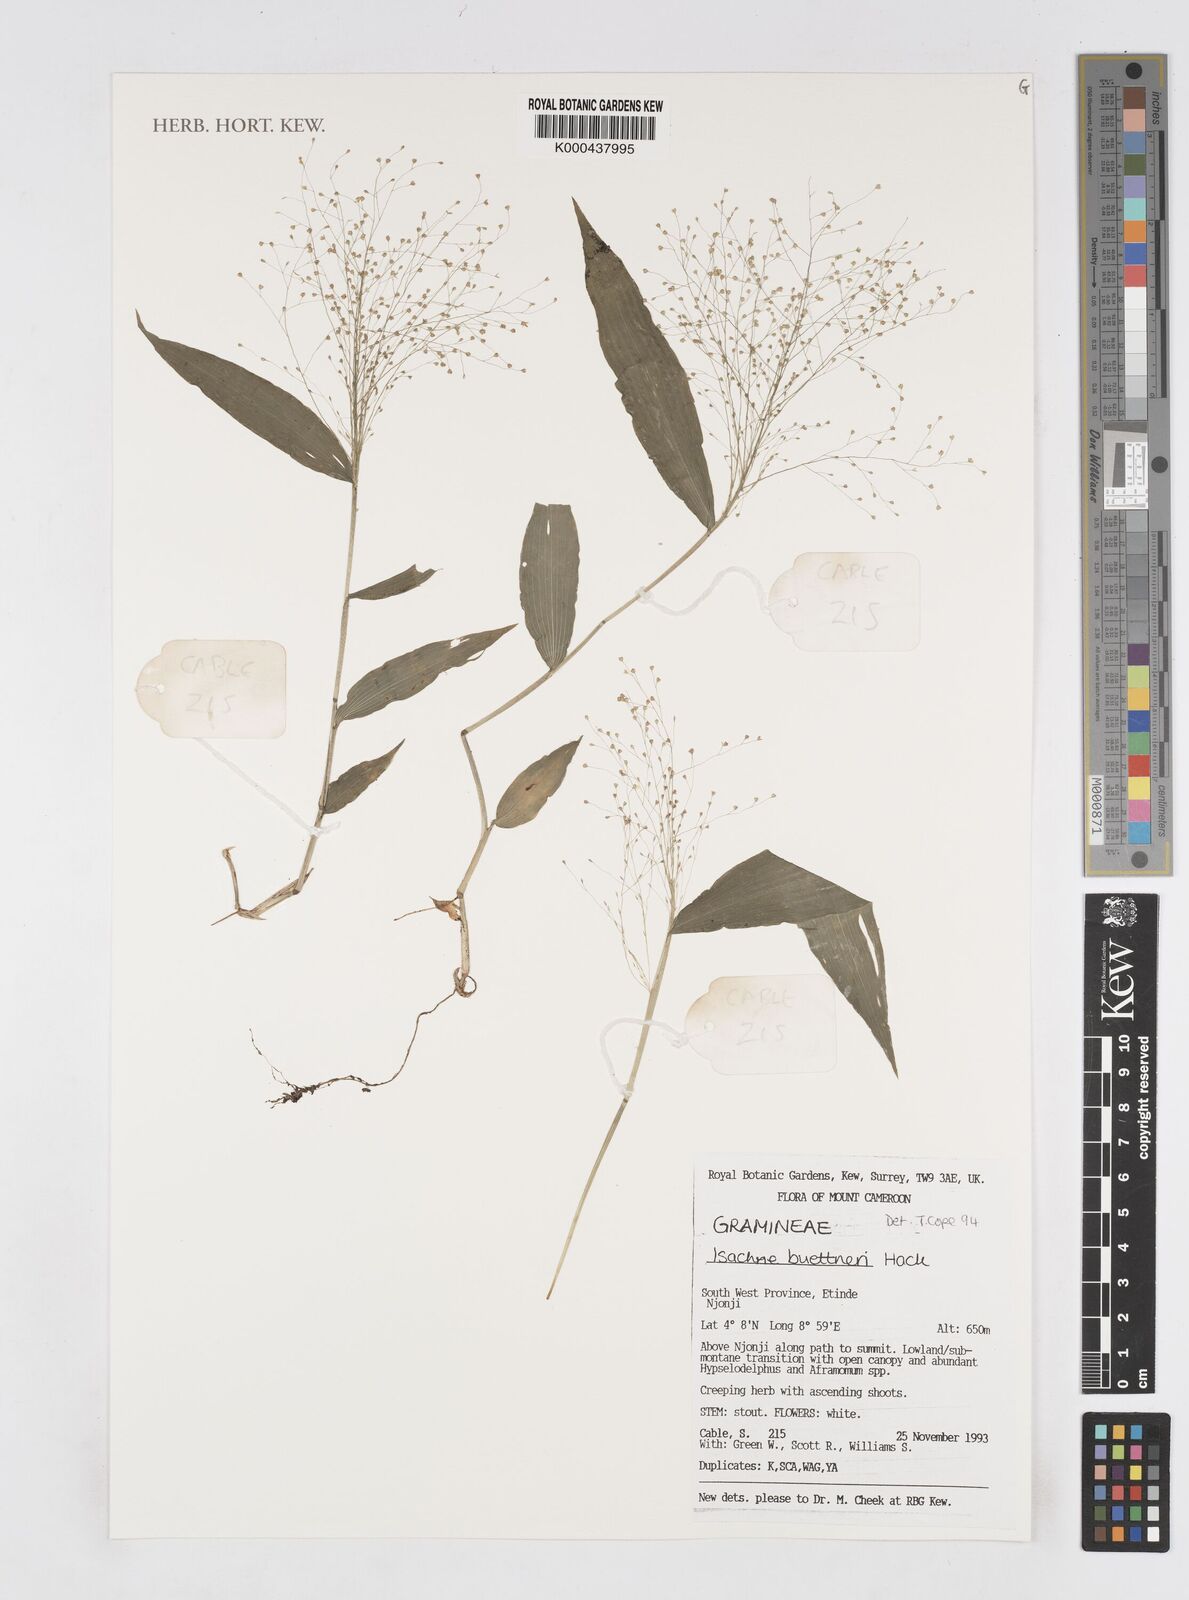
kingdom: Plantae
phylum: Tracheophyta
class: Liliopsida
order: Poales
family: Poaceae
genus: Isachne
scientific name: Isachne albens
